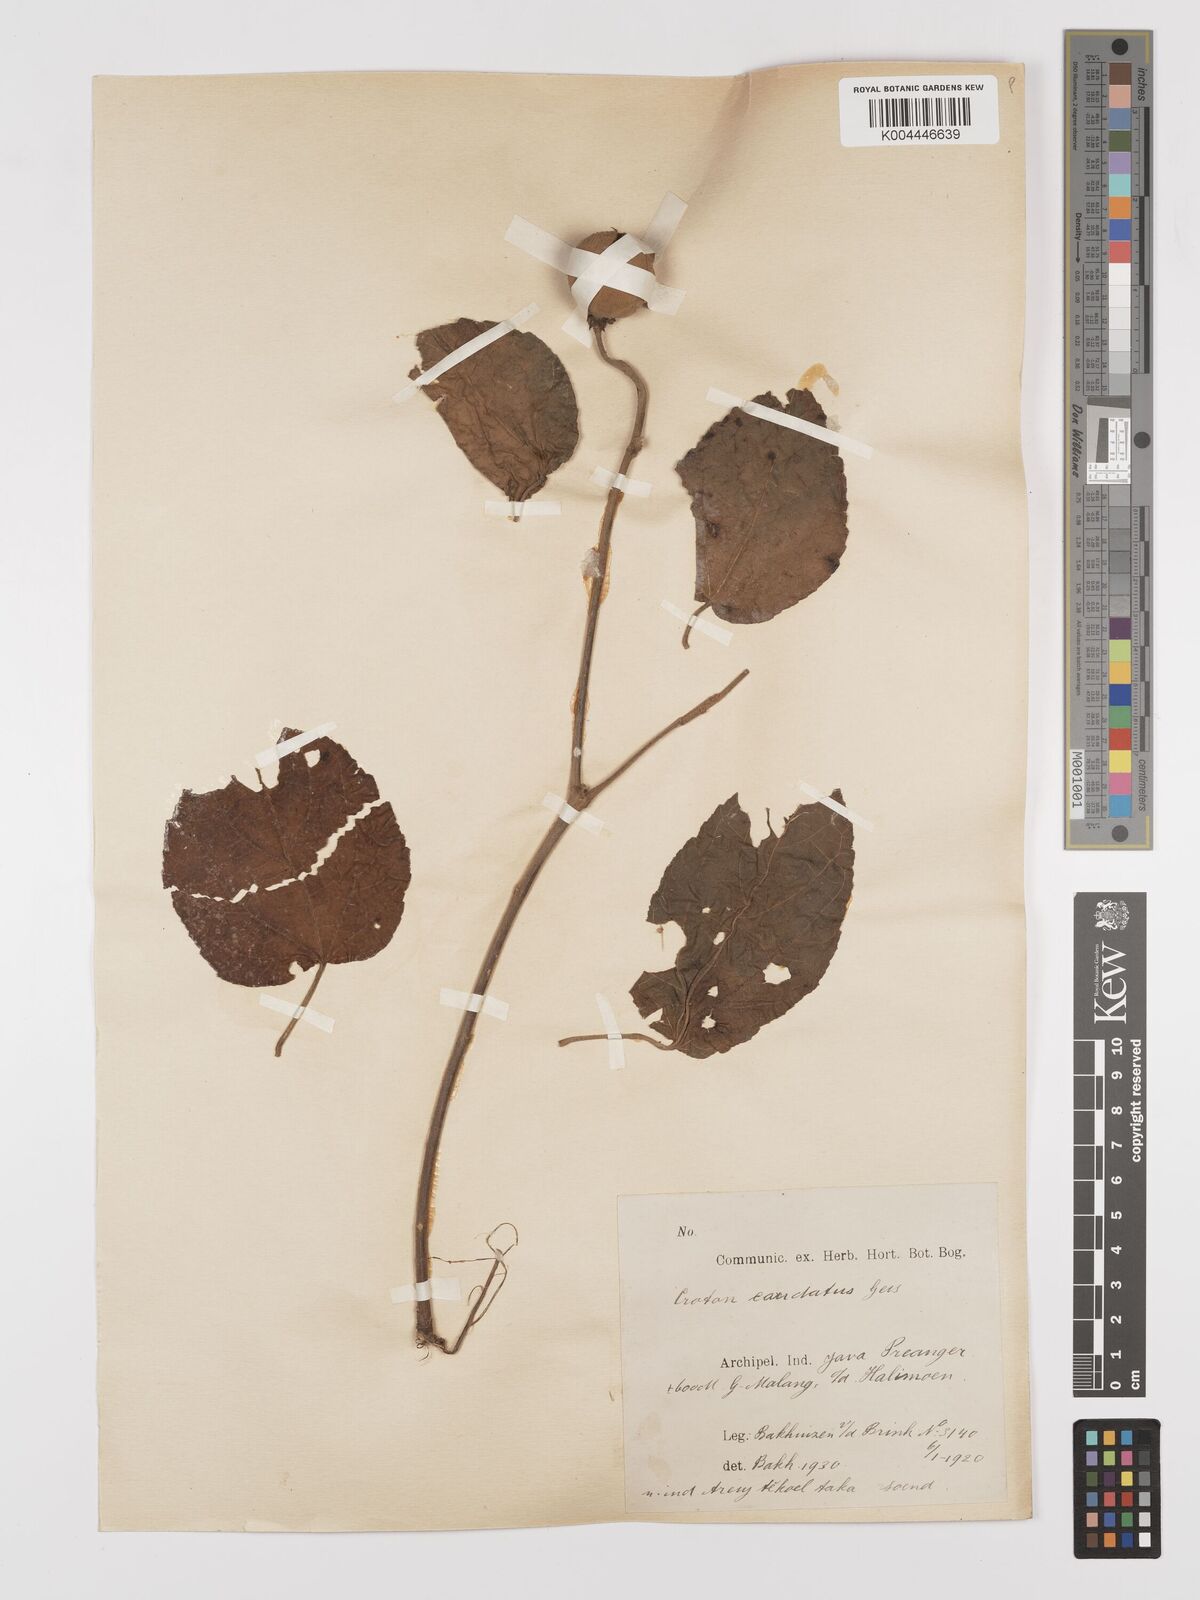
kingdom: Plantae
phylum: Tracheophyta
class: Magnoliopsida
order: Malpighiales
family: Euphorbiaceae
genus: Croton
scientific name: Croton caudatus
